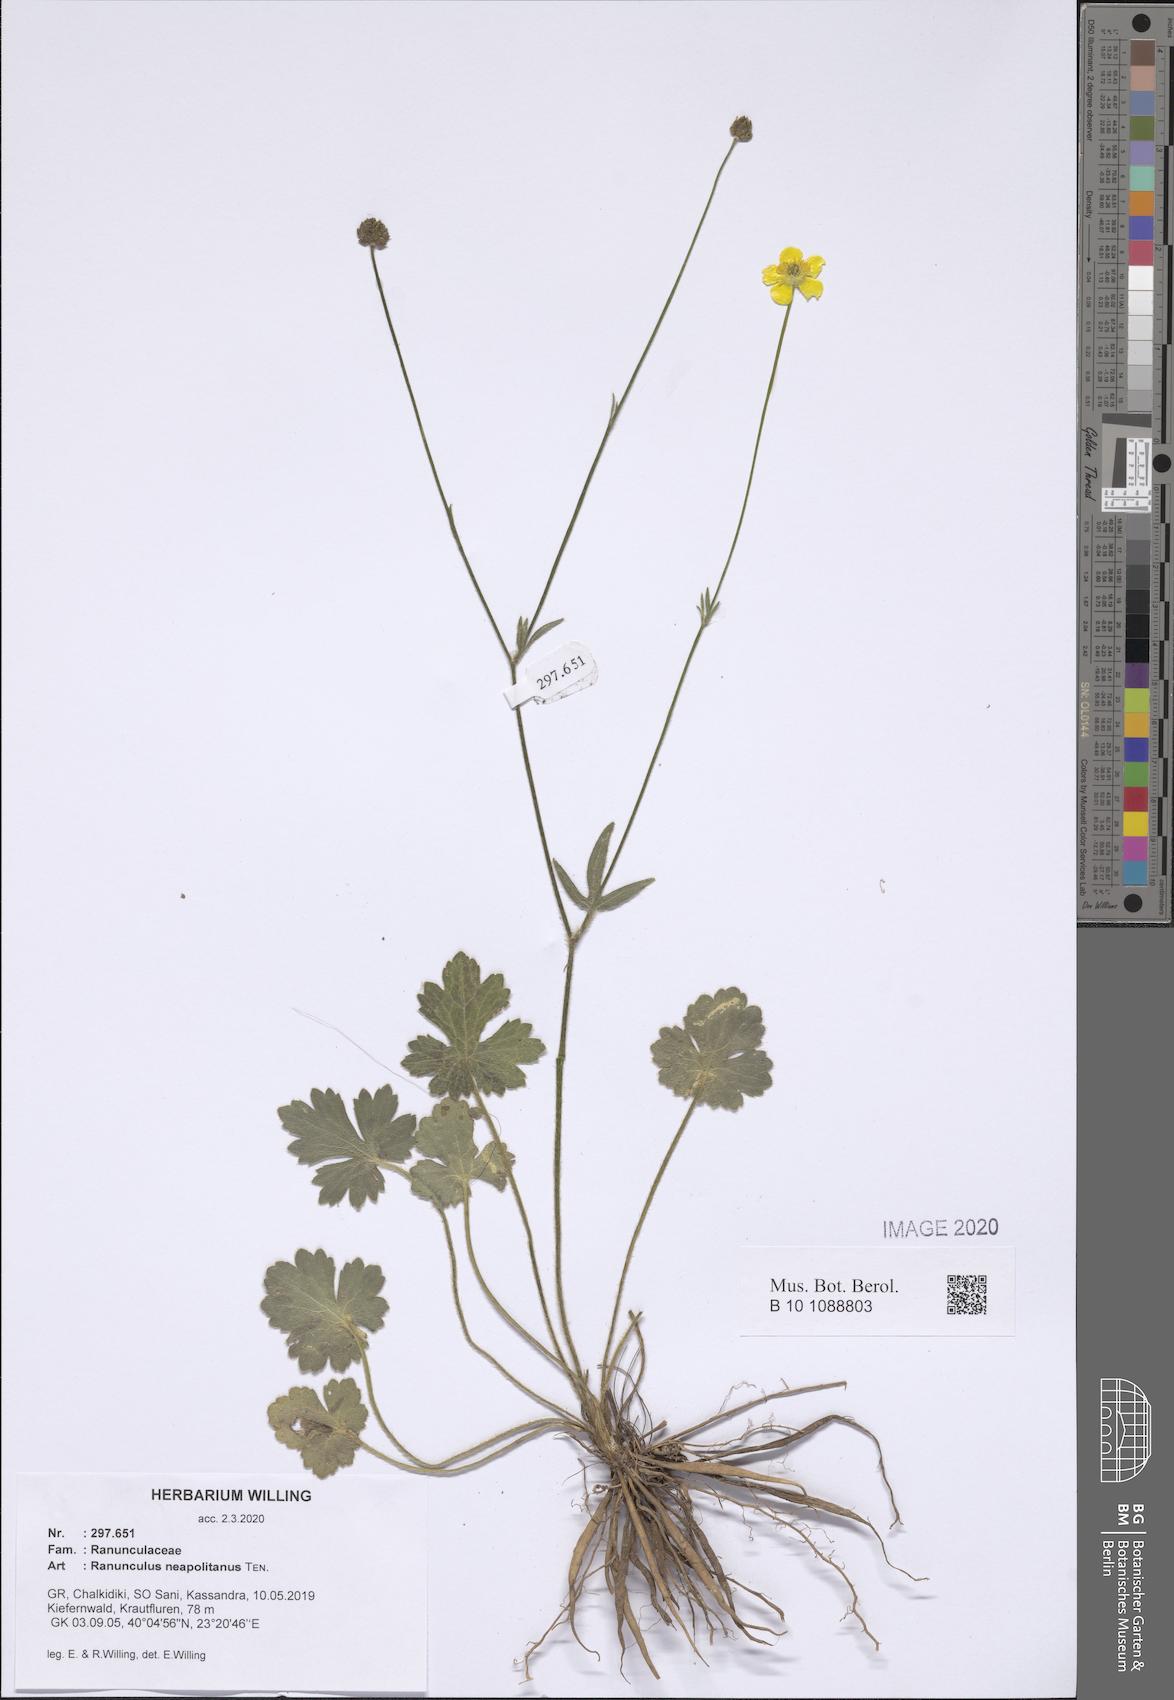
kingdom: Plantae
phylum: Tracheophyta
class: Magnoliopsida
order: Ranunculales
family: Ranunculaceae
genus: Ranunculus
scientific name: Ranunculus neapolitanus
